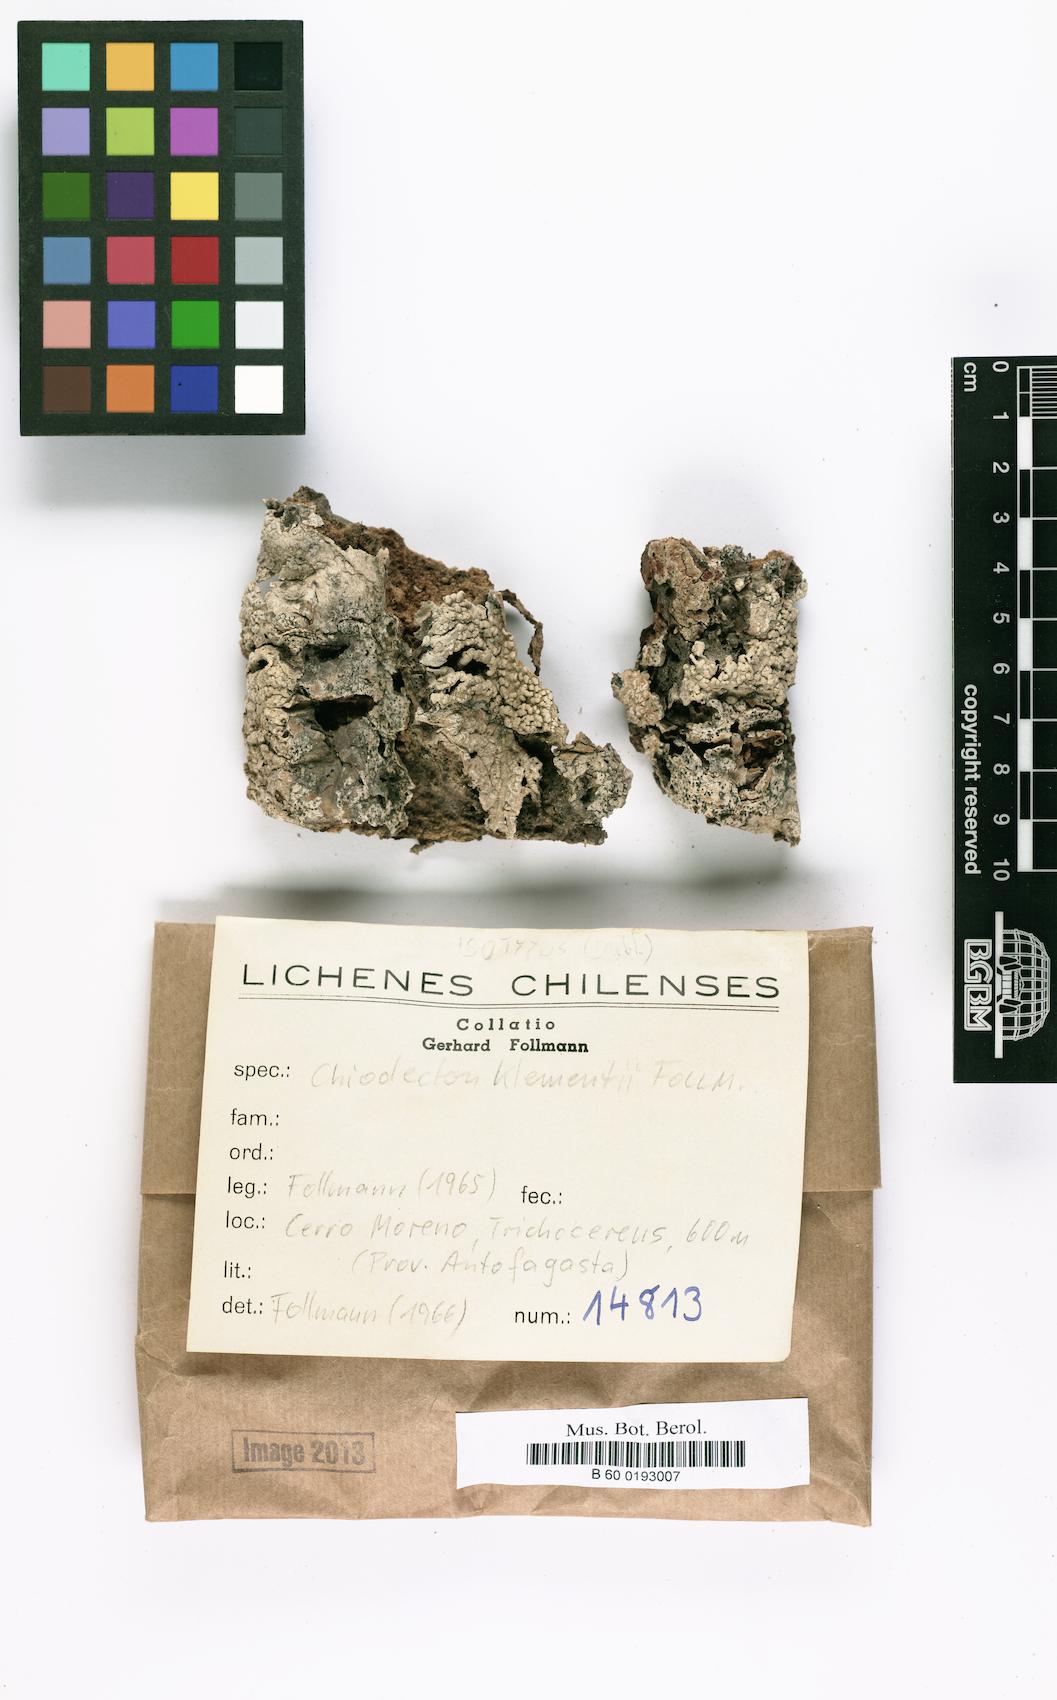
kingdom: Fungi
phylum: Ascomycota
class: Arthoniomycetes
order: Arthoniales
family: Roccellographaceae
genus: Fulvophyton
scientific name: Fulvophyton klementii
